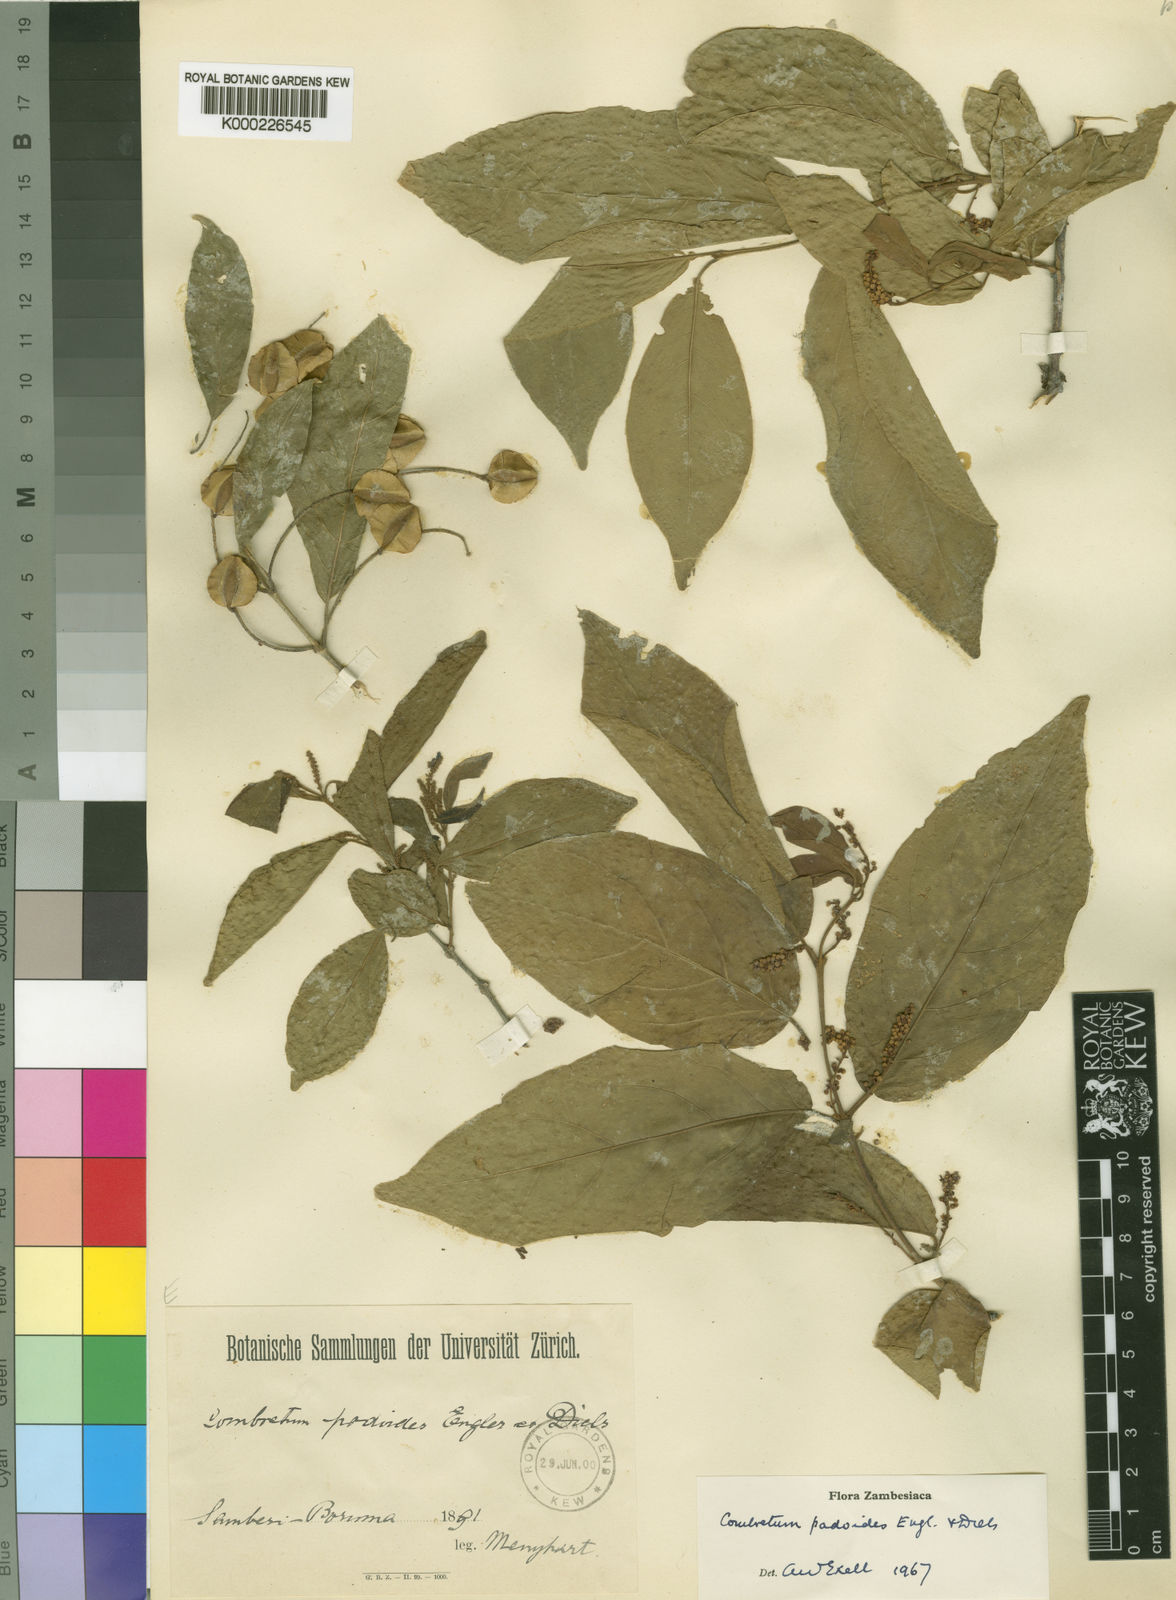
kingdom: Plantae
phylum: Tracheophyta
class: Magnoliopsida
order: Myrtales
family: Combretaceae
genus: Combretum
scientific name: Combretum padoides
